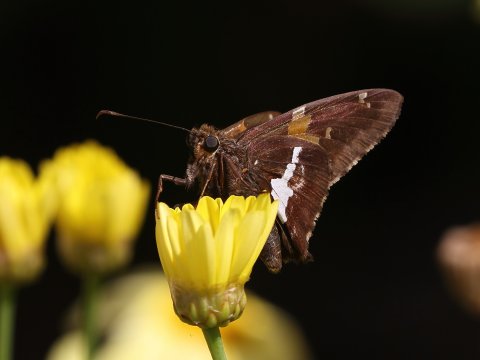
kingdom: Animalia
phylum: Arthropoda
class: Insecta
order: Lepidoptera
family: Hesperiidae
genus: Epargyreus
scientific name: Epargyreus clarus
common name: Silver-spotted Skipper
